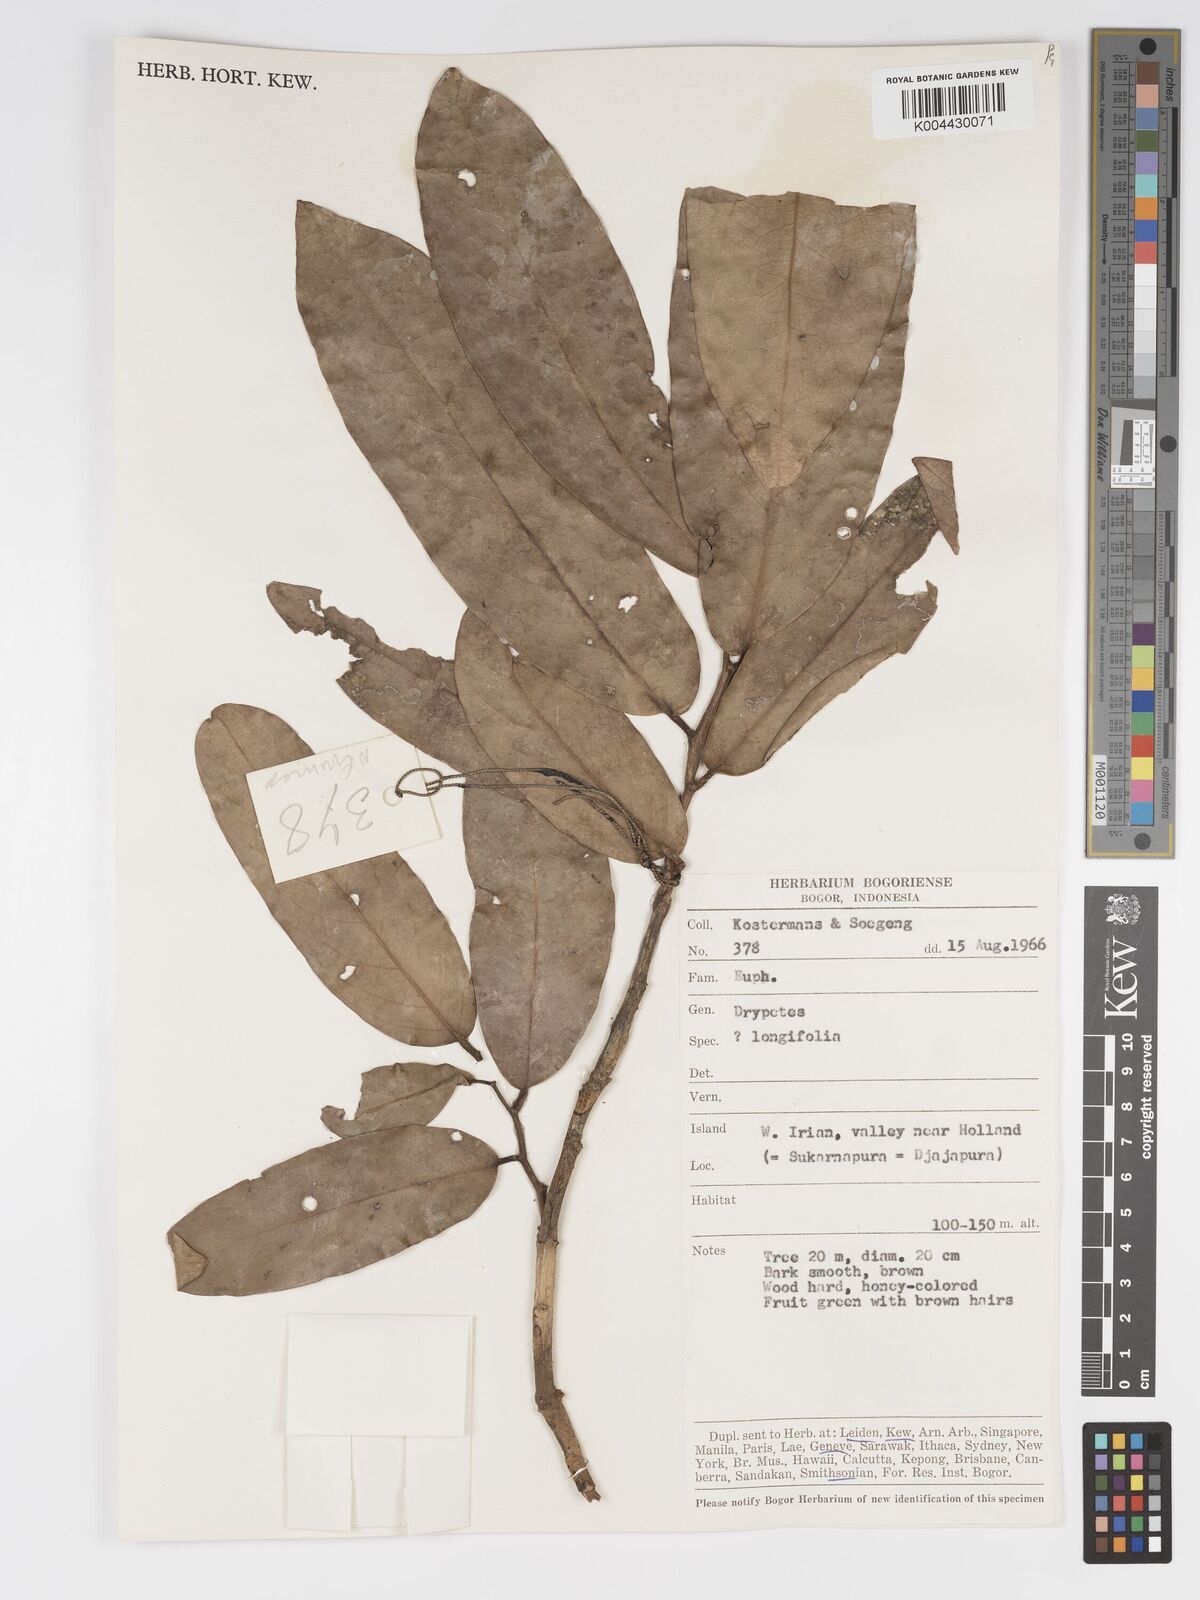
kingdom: Plantae
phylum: Tracheophyta
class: Magnoliopsida
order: Malpighiales
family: Putranjivaceae
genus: Drypetes
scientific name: Drypetes longifolia
